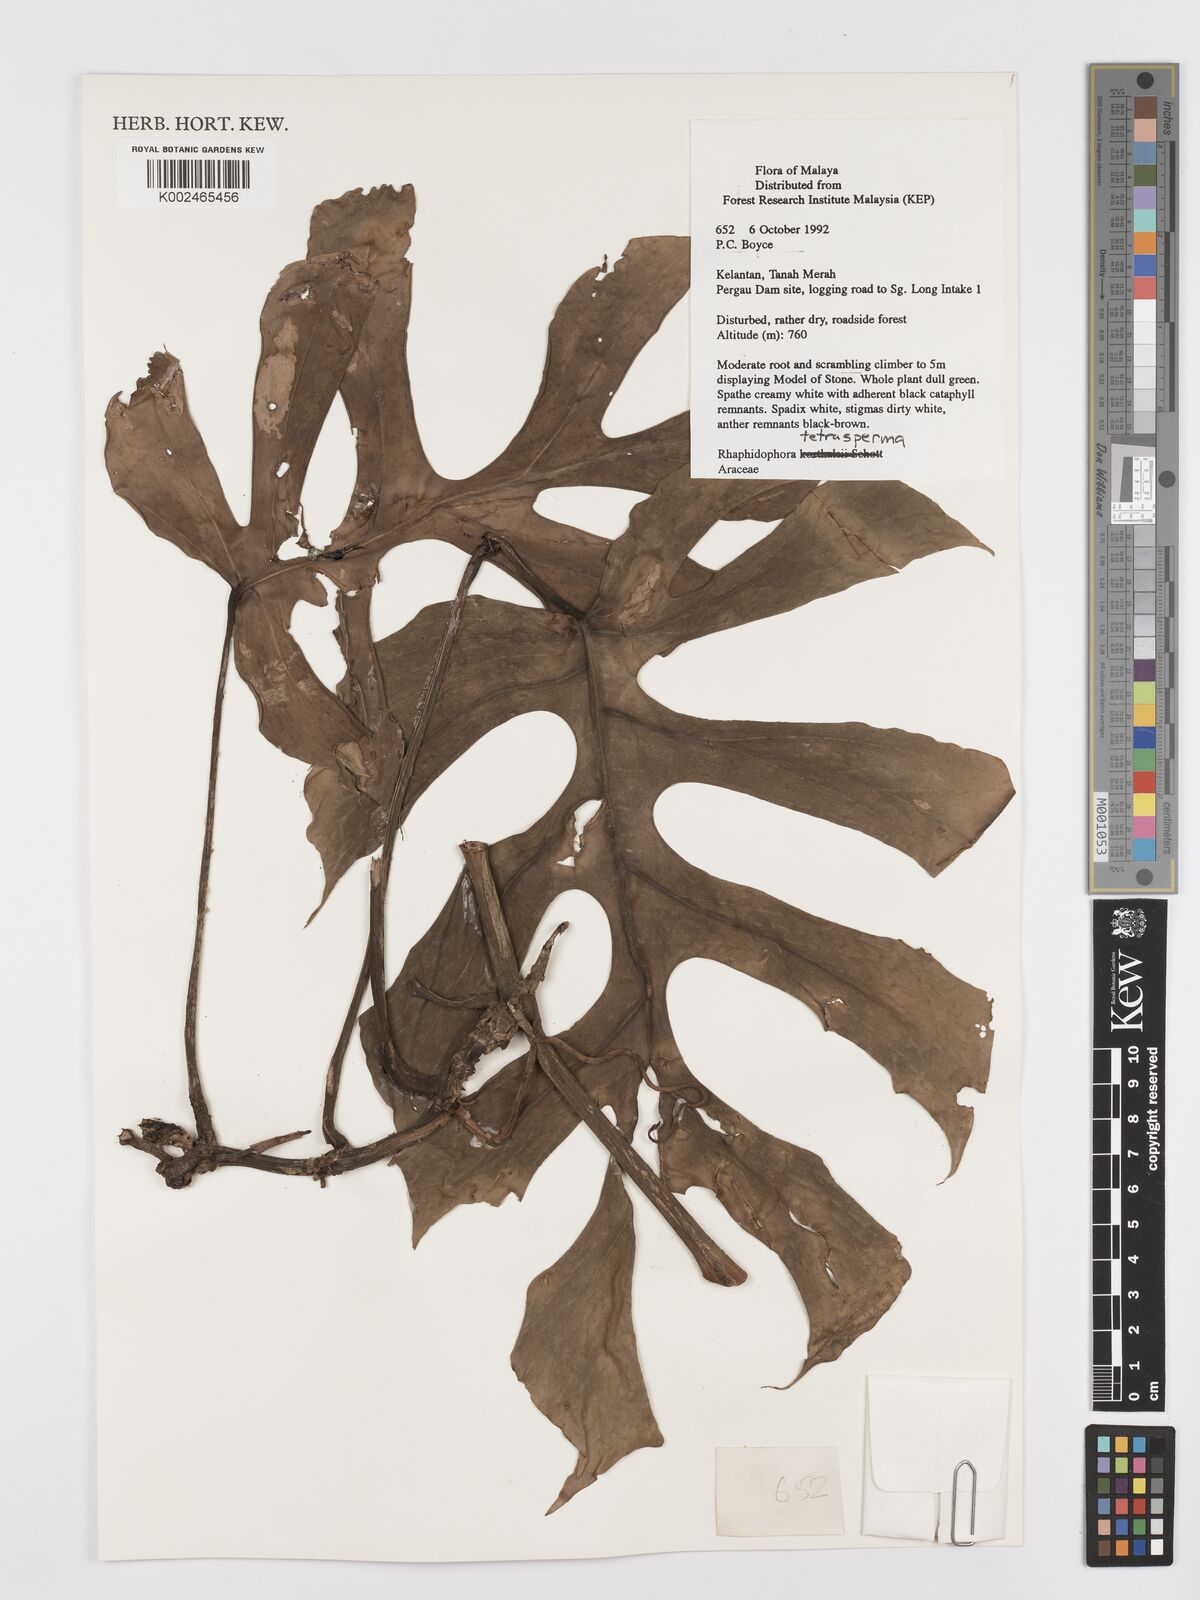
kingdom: Plantae
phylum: Tracheophyta
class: Liliopsida
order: Alismatales
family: Araceae
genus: Rhaphidophora
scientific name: Rhaphidophora tetrasperma
